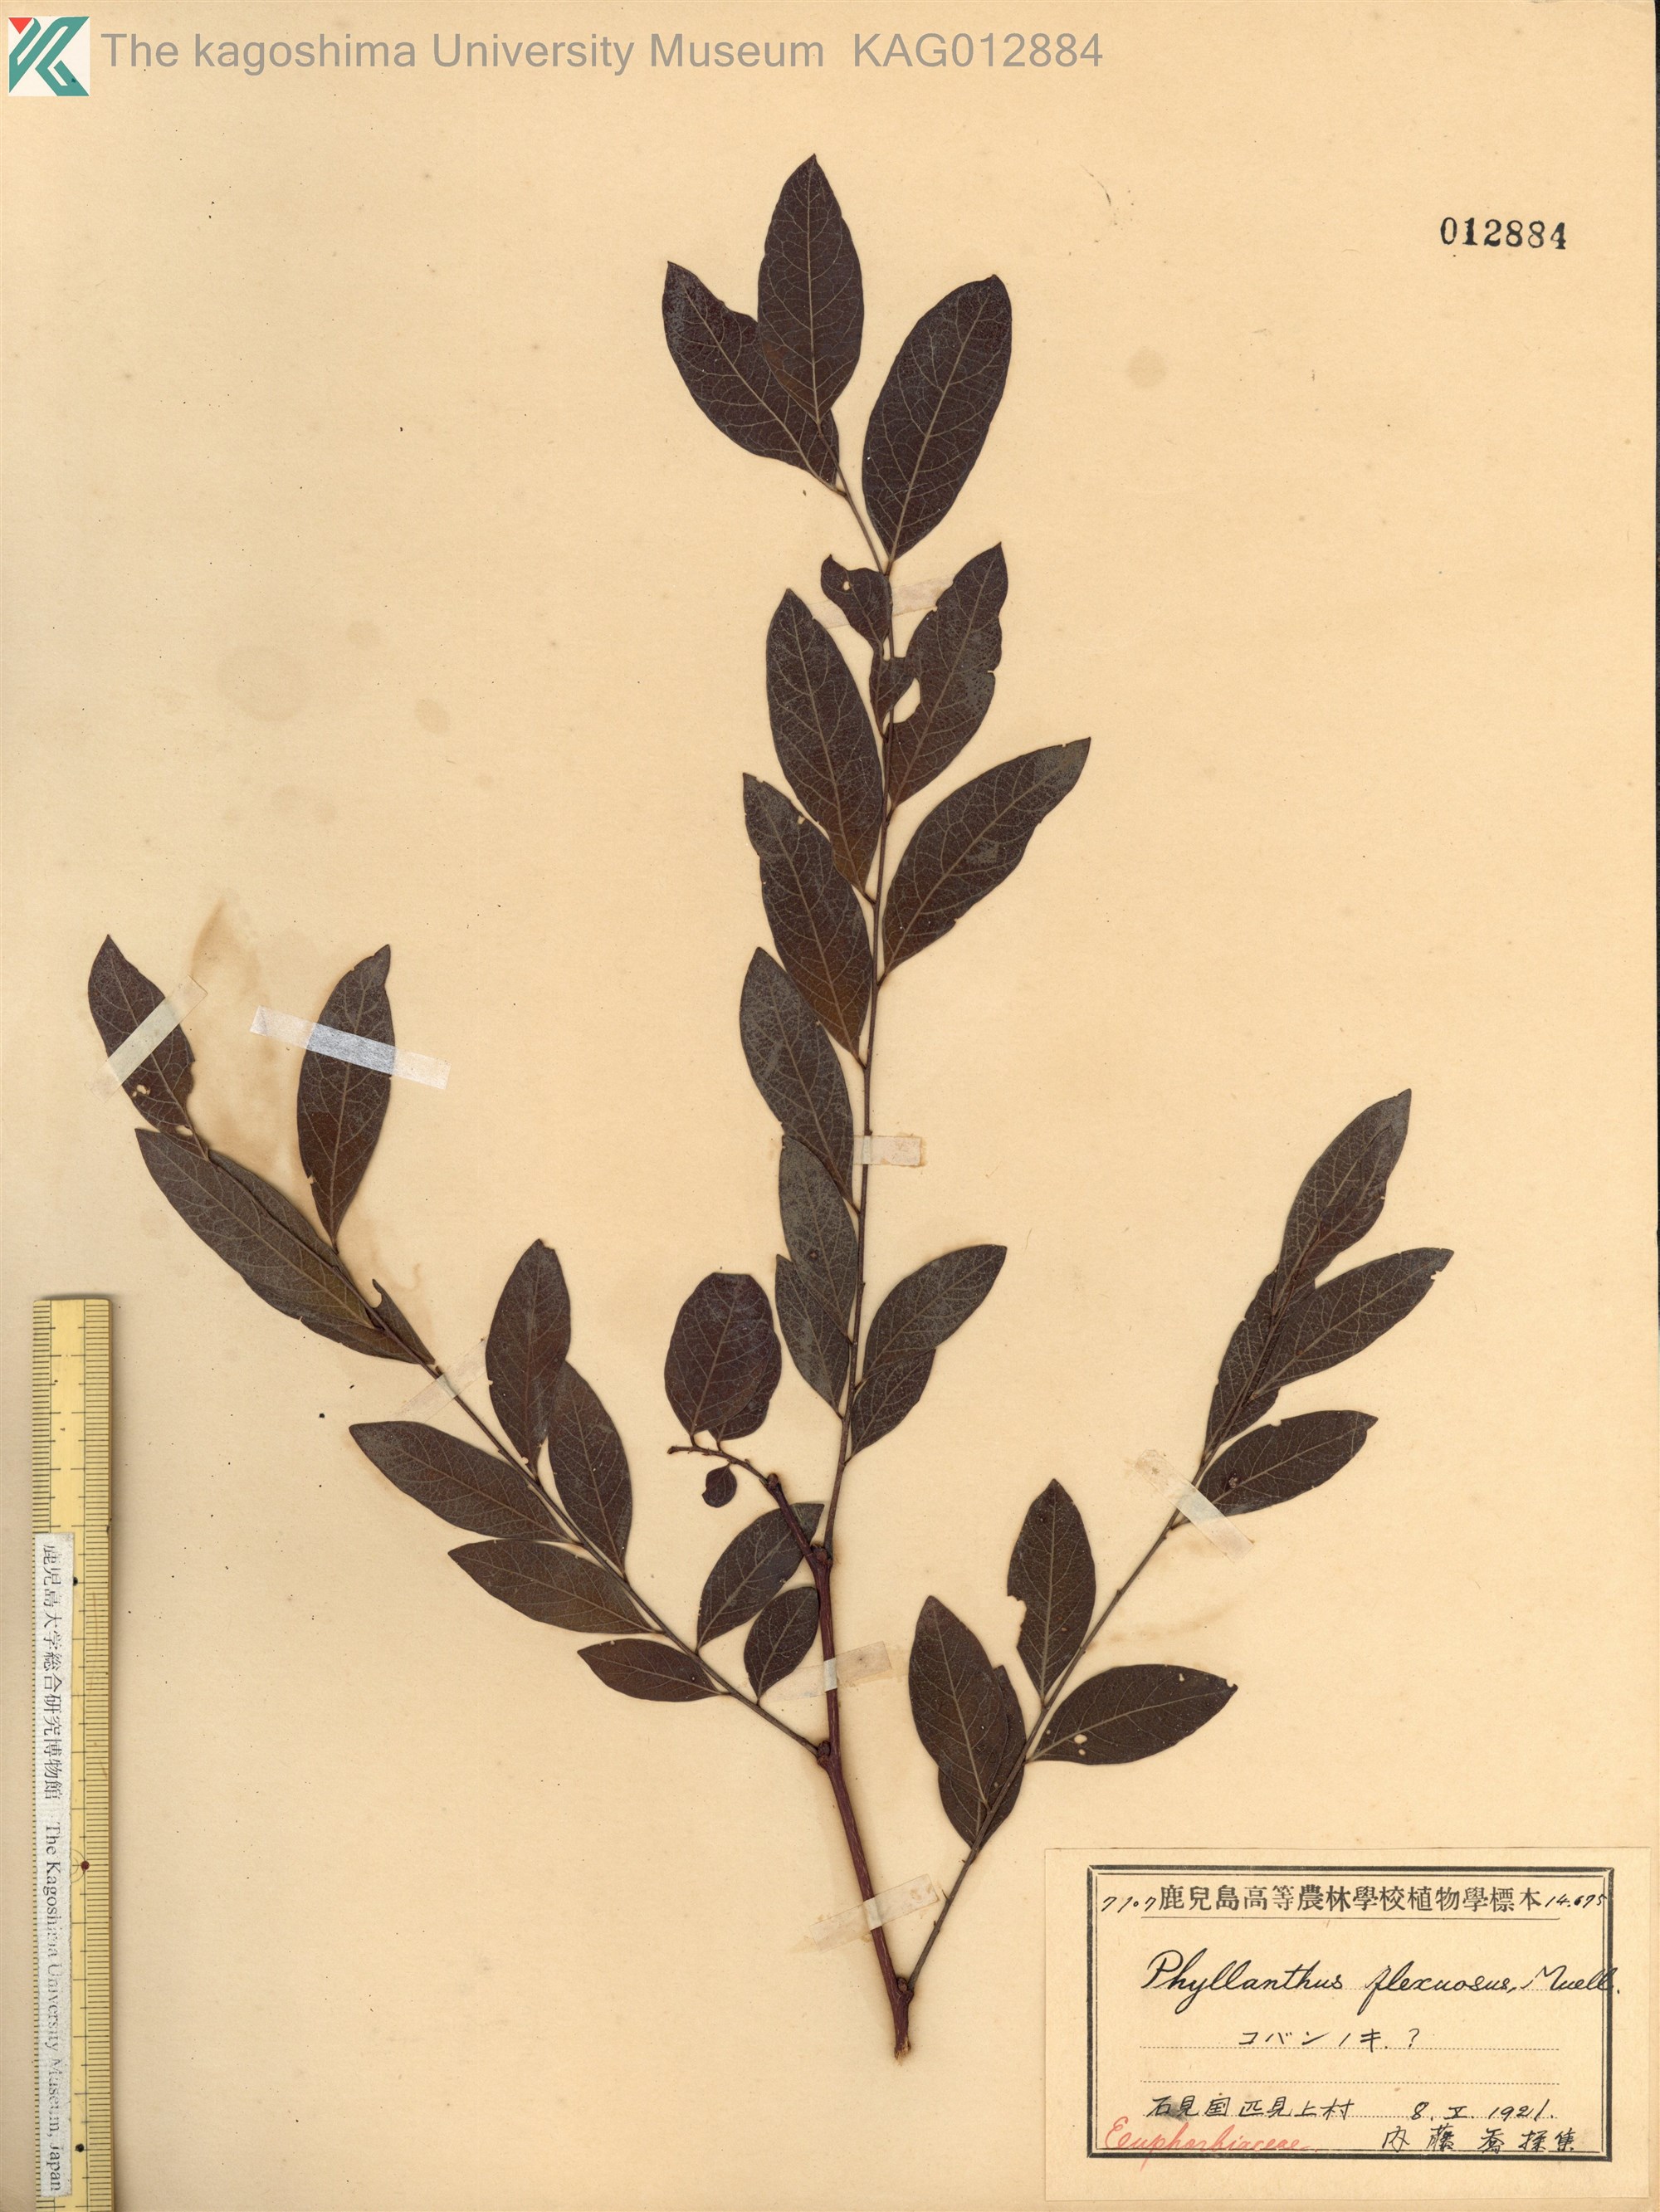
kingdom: Plantae
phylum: Tracheophyta
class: Magnoliopsida
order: Malpighiales
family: Phyllanthaceae
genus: Phyllanthus
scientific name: Phyllanthus flexuosus
